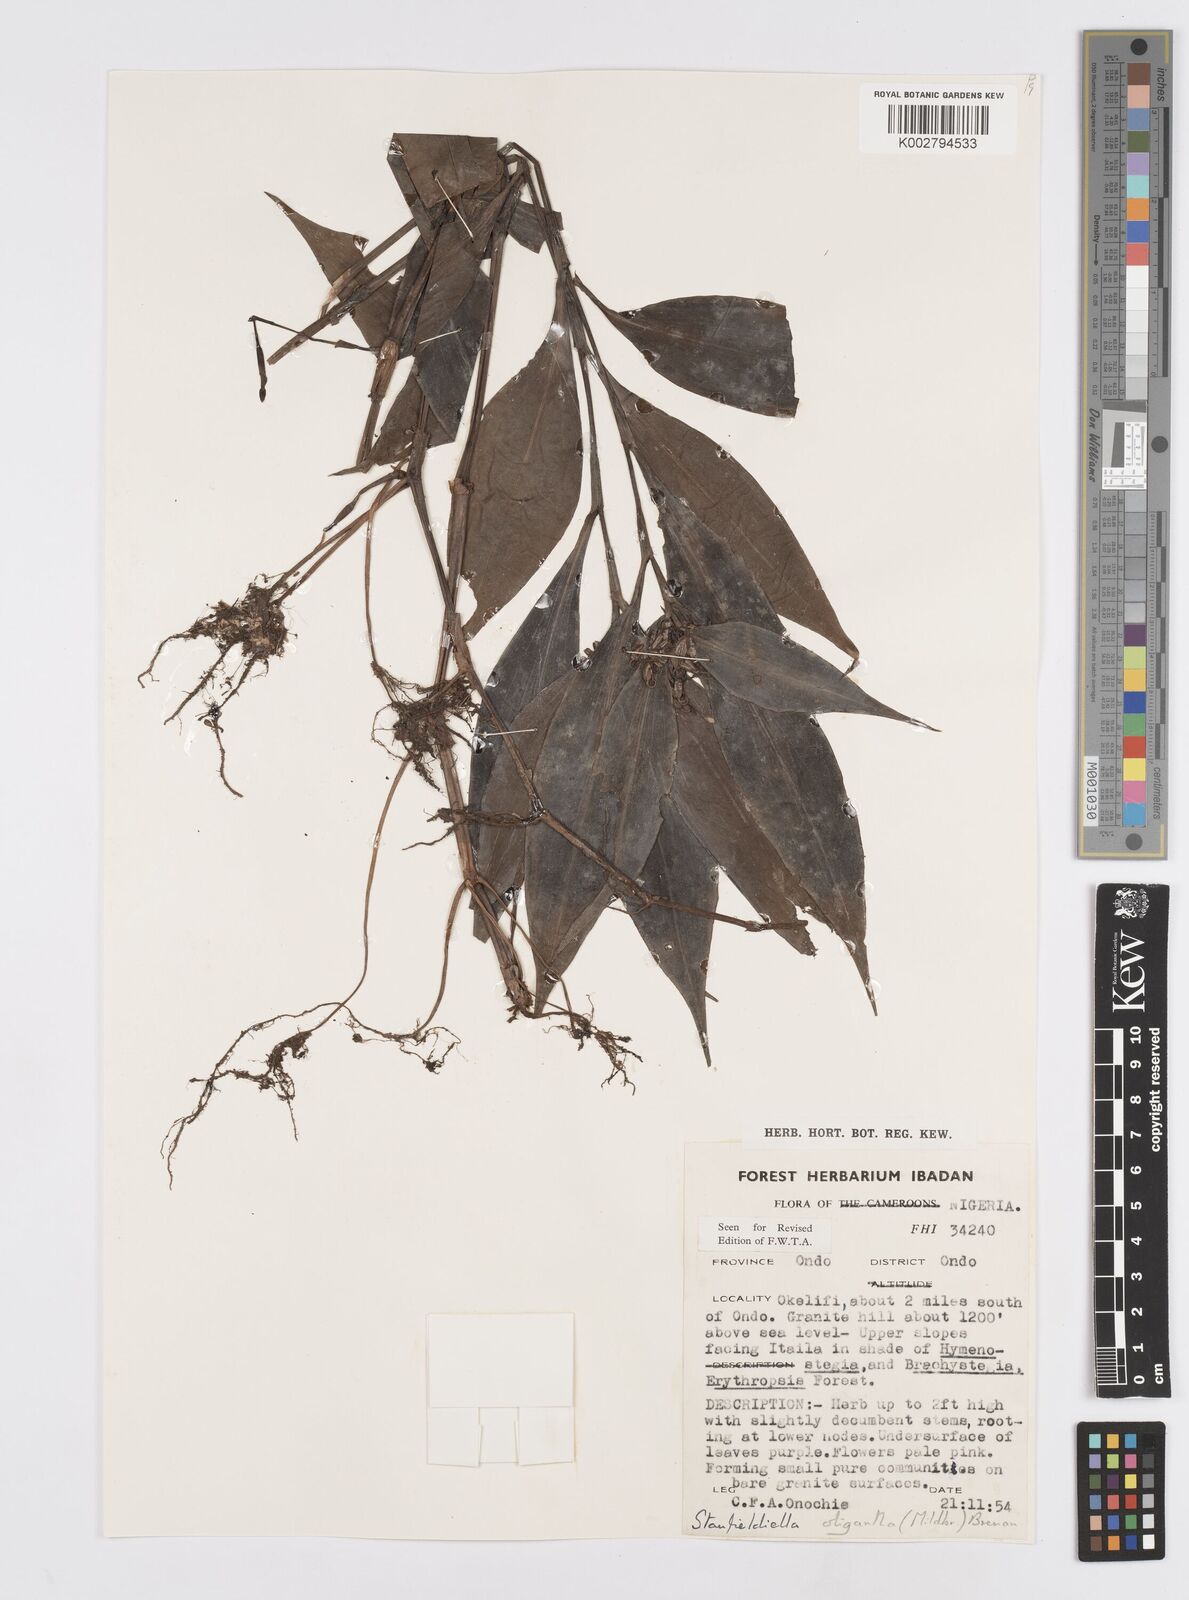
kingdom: Plantae
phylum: Tracheophyta
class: Liliopsida
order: Commelinales
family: Commelinaceae
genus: Stanfieldiella
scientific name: Stanfieldiella oligantha
